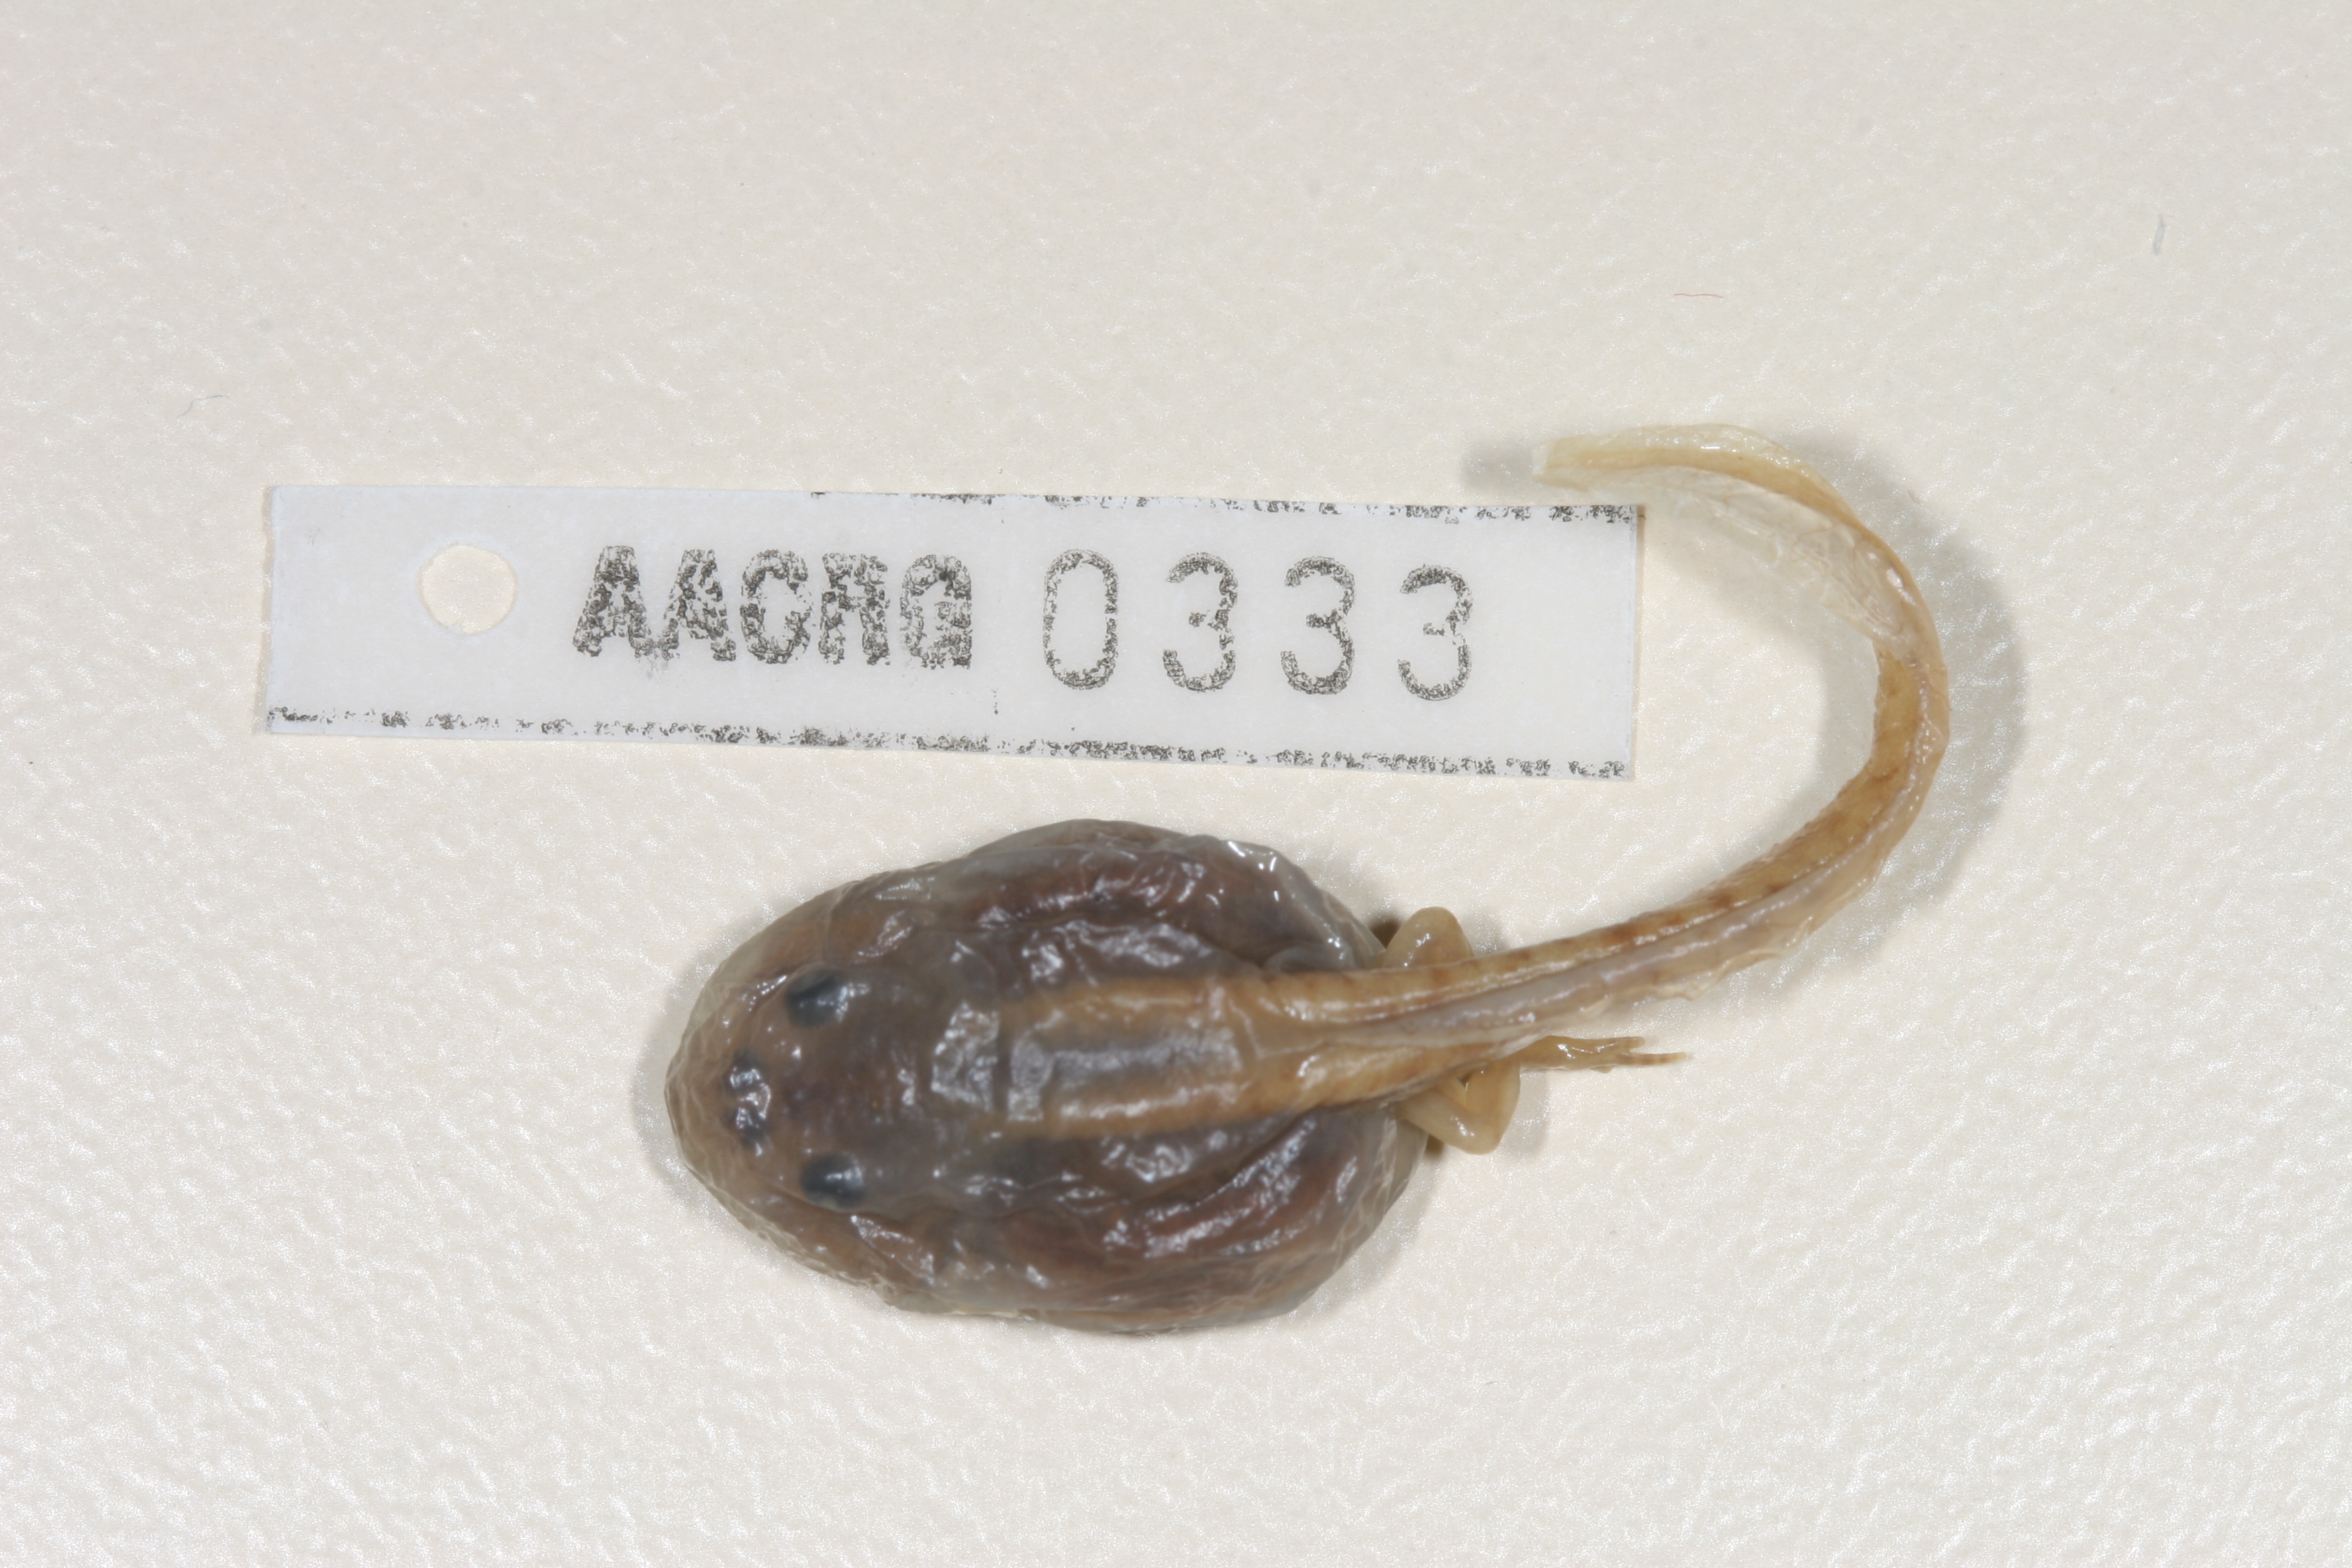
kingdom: Animalia
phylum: Chordata
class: Amphibia
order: Anura
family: Pyxicephalidae
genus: Strongylopus
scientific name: Strongylopus springbokensis
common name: Namaqua stream frog
